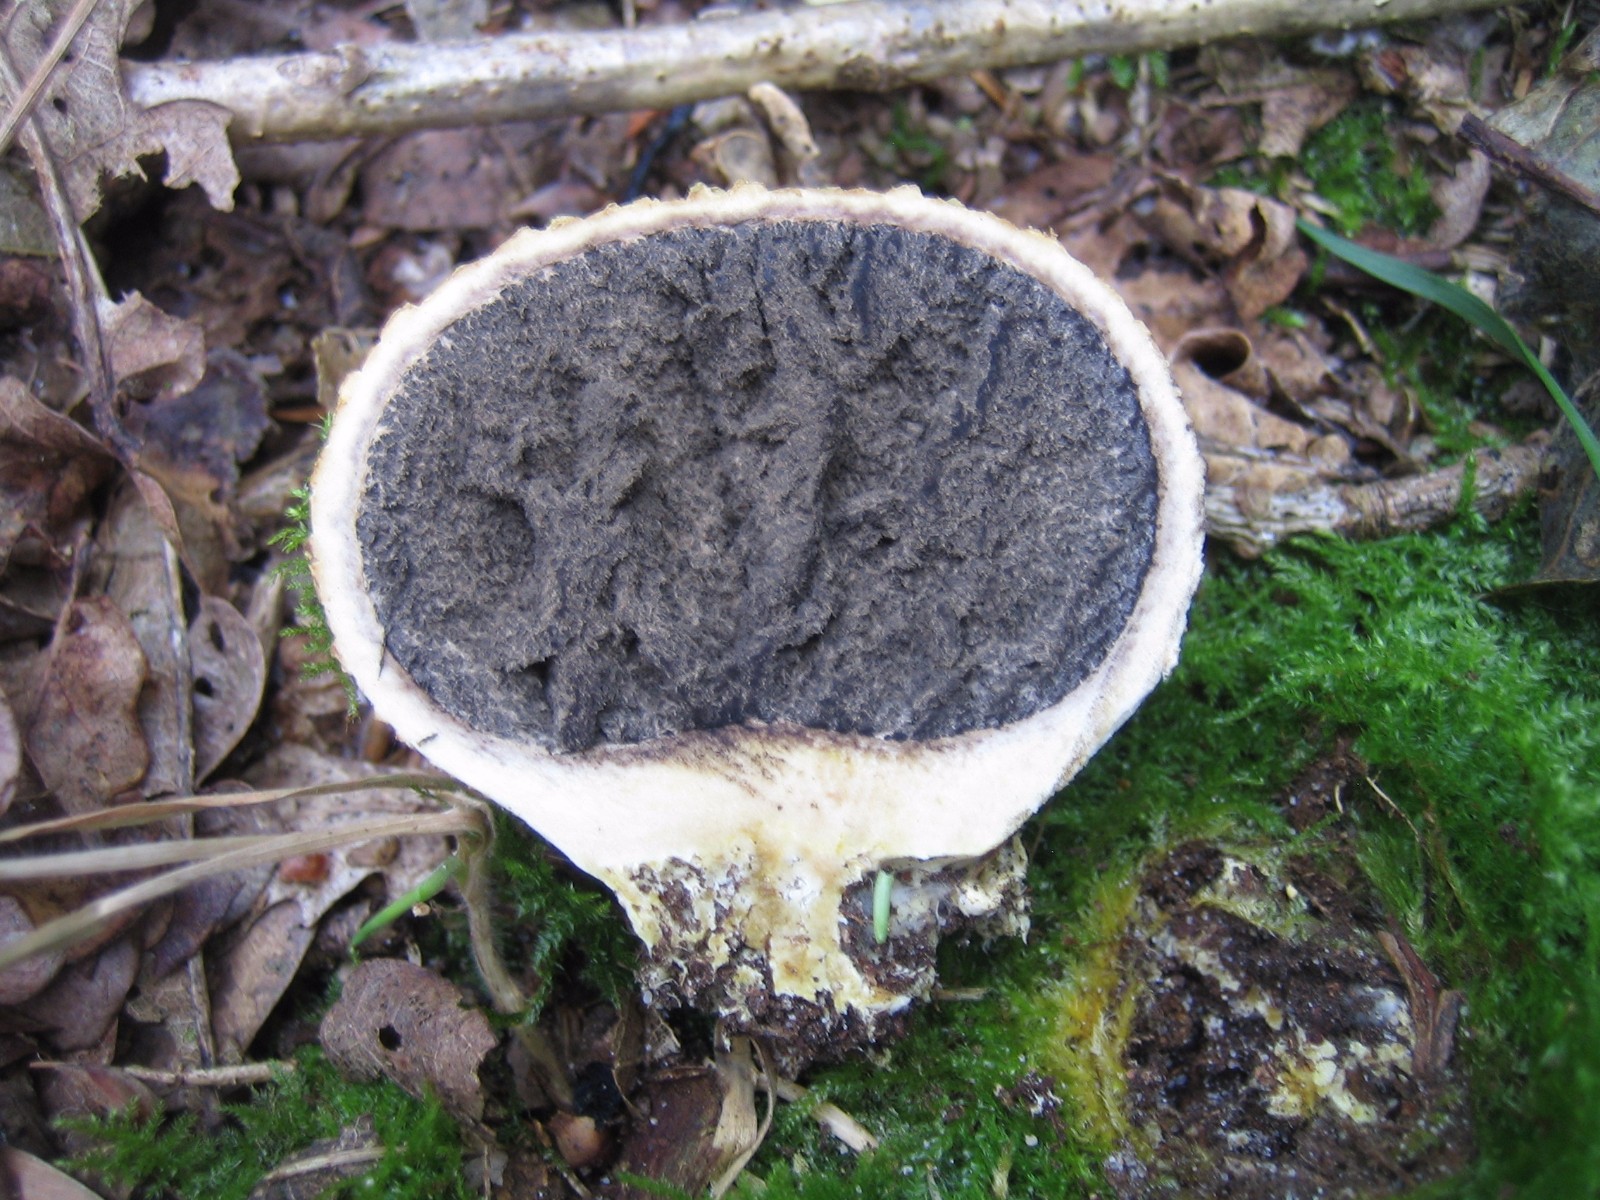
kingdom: Fungi
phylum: Basidiomycota
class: Agaricomycetes
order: Boletales
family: Sclerodermataceae
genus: Scleroderma
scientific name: Scleroderma citrinum
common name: almindelig bruskbold
